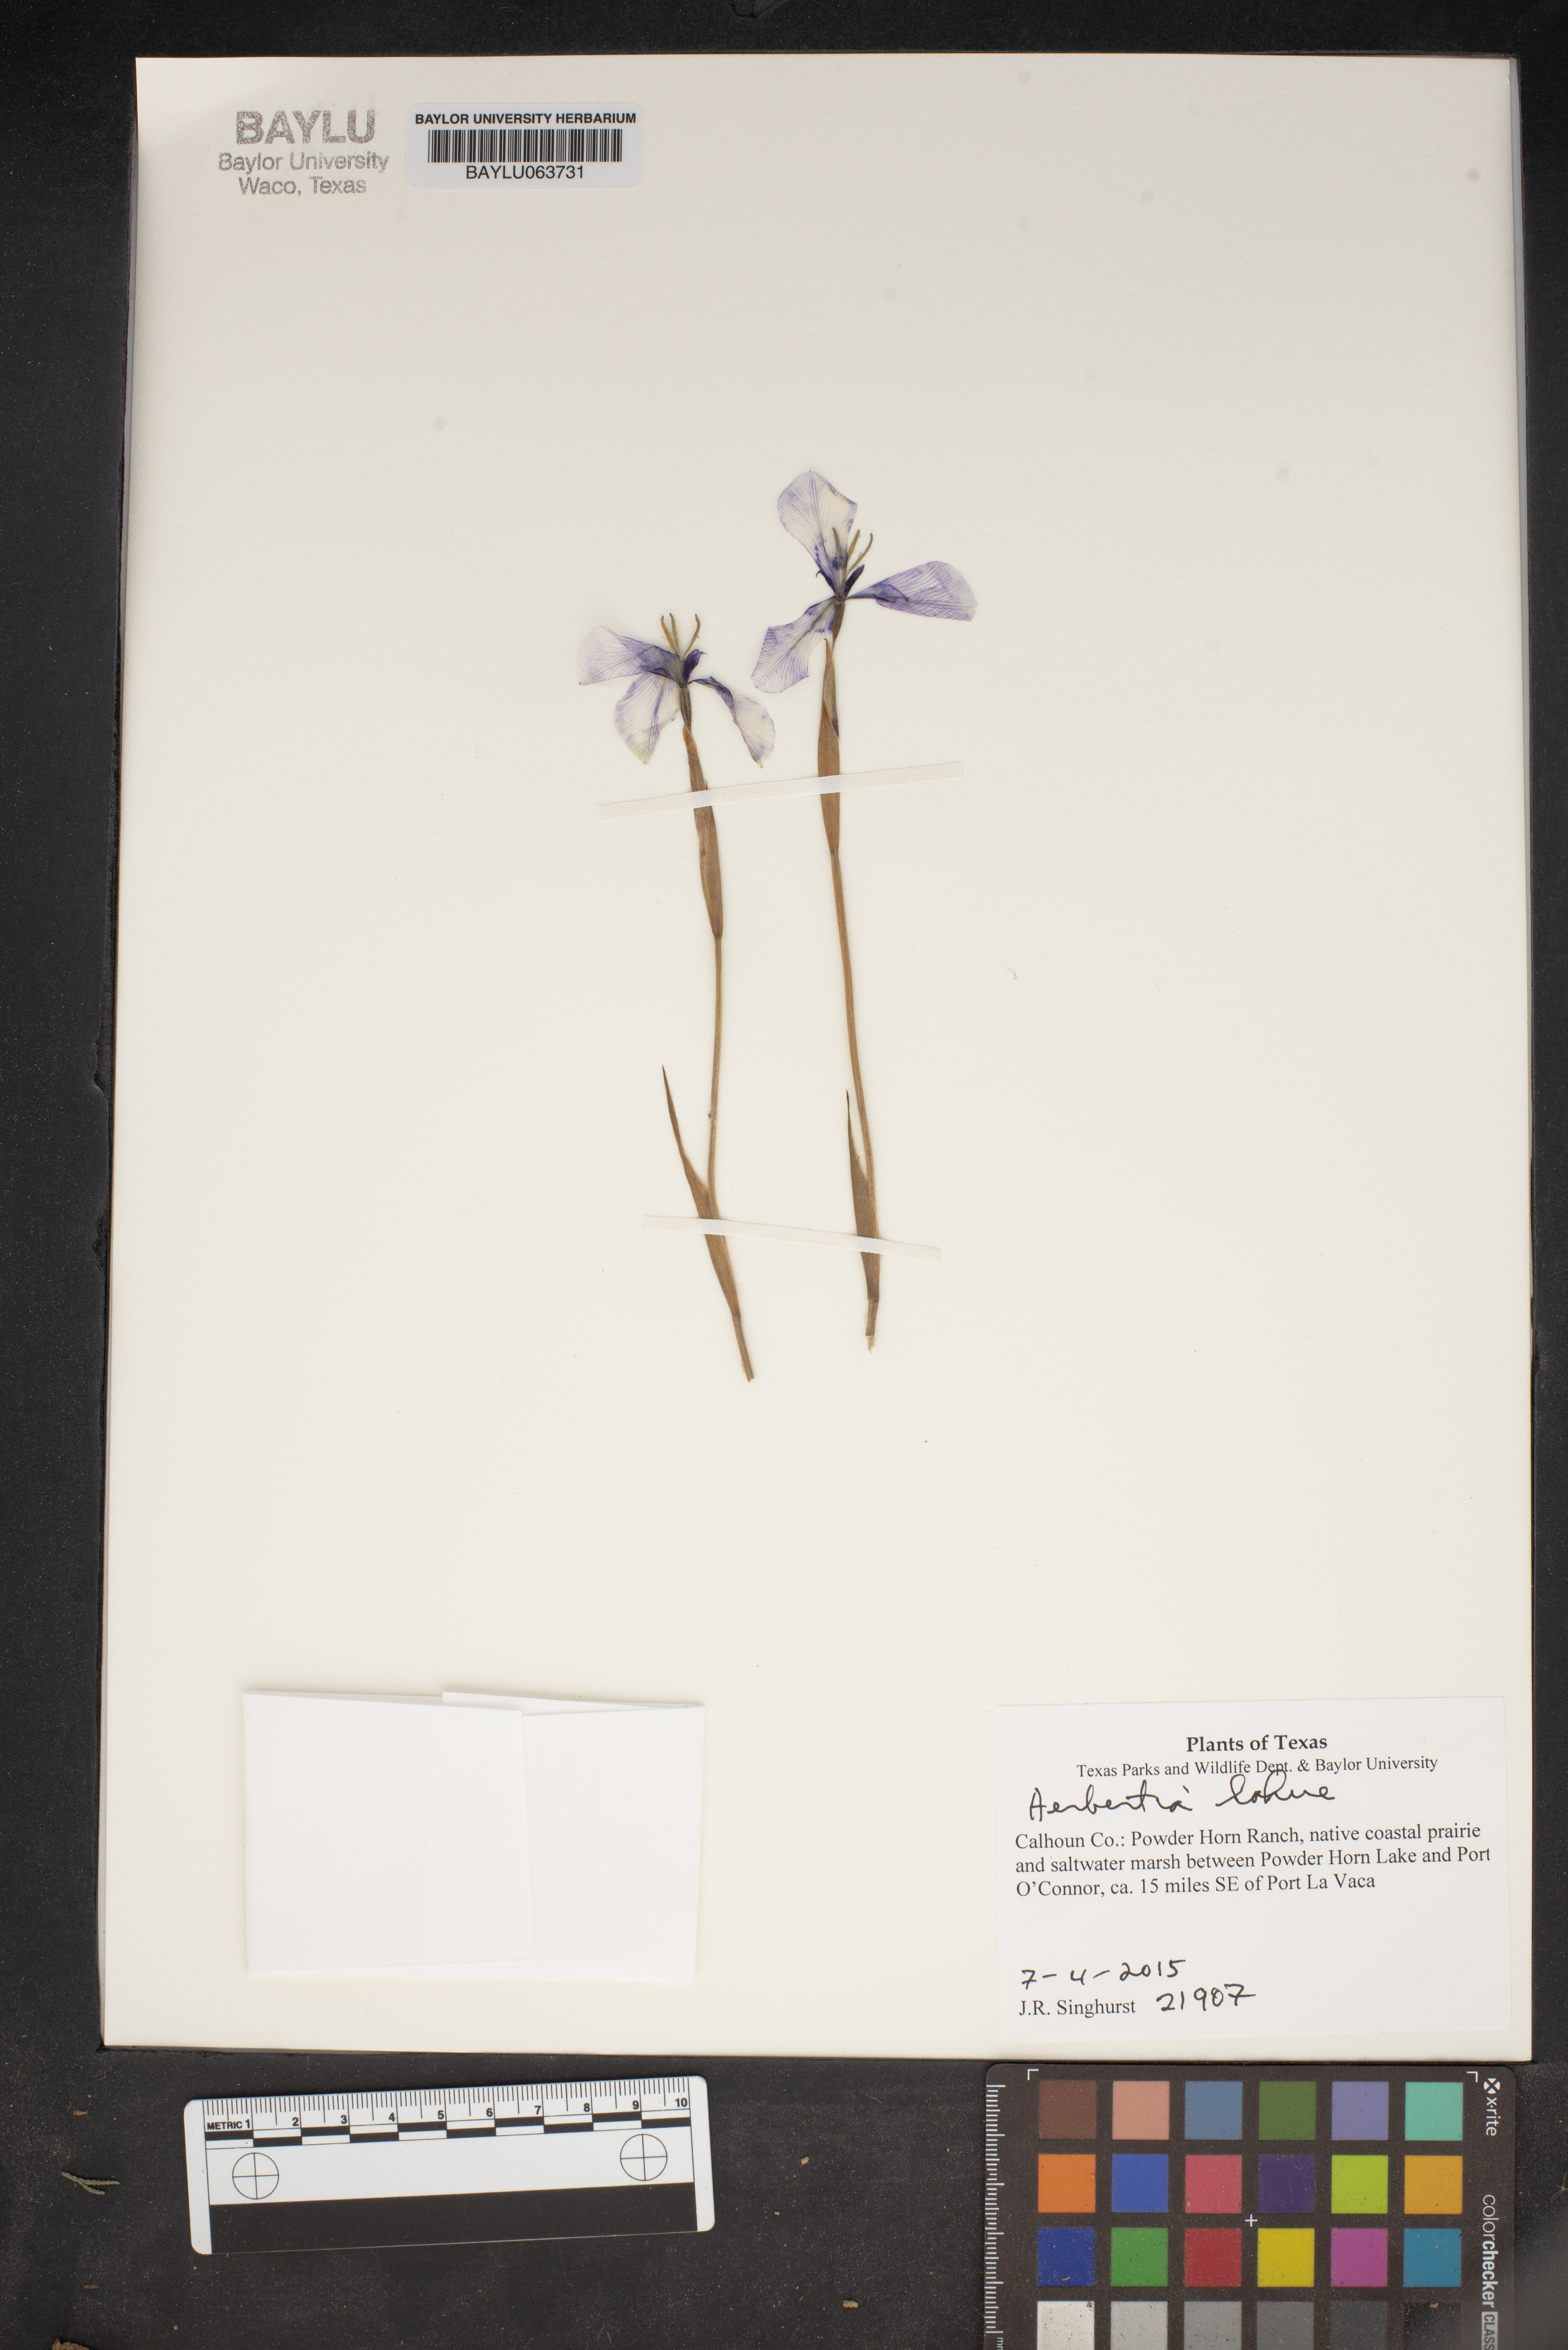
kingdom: Plantae
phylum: Tracheophyta
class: Liliopsida
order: Asparagales
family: Iridaceae
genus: Herbertia
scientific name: Herbertia lahue
